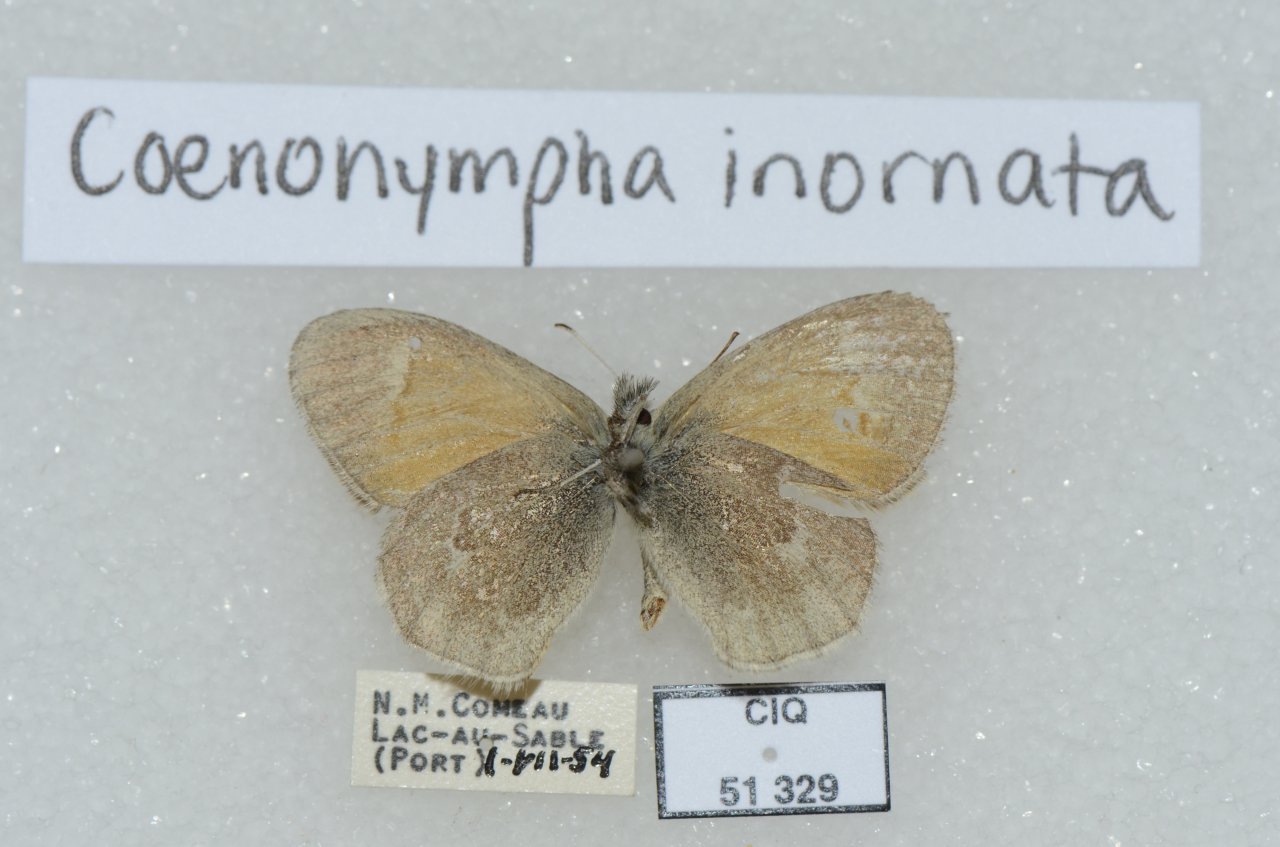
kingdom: Animalia
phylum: Arthropoda
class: Insecta
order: Lepidoptera
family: Nymphalidae
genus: Coenonympha
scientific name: Coenonympha tullia
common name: Large Heath
